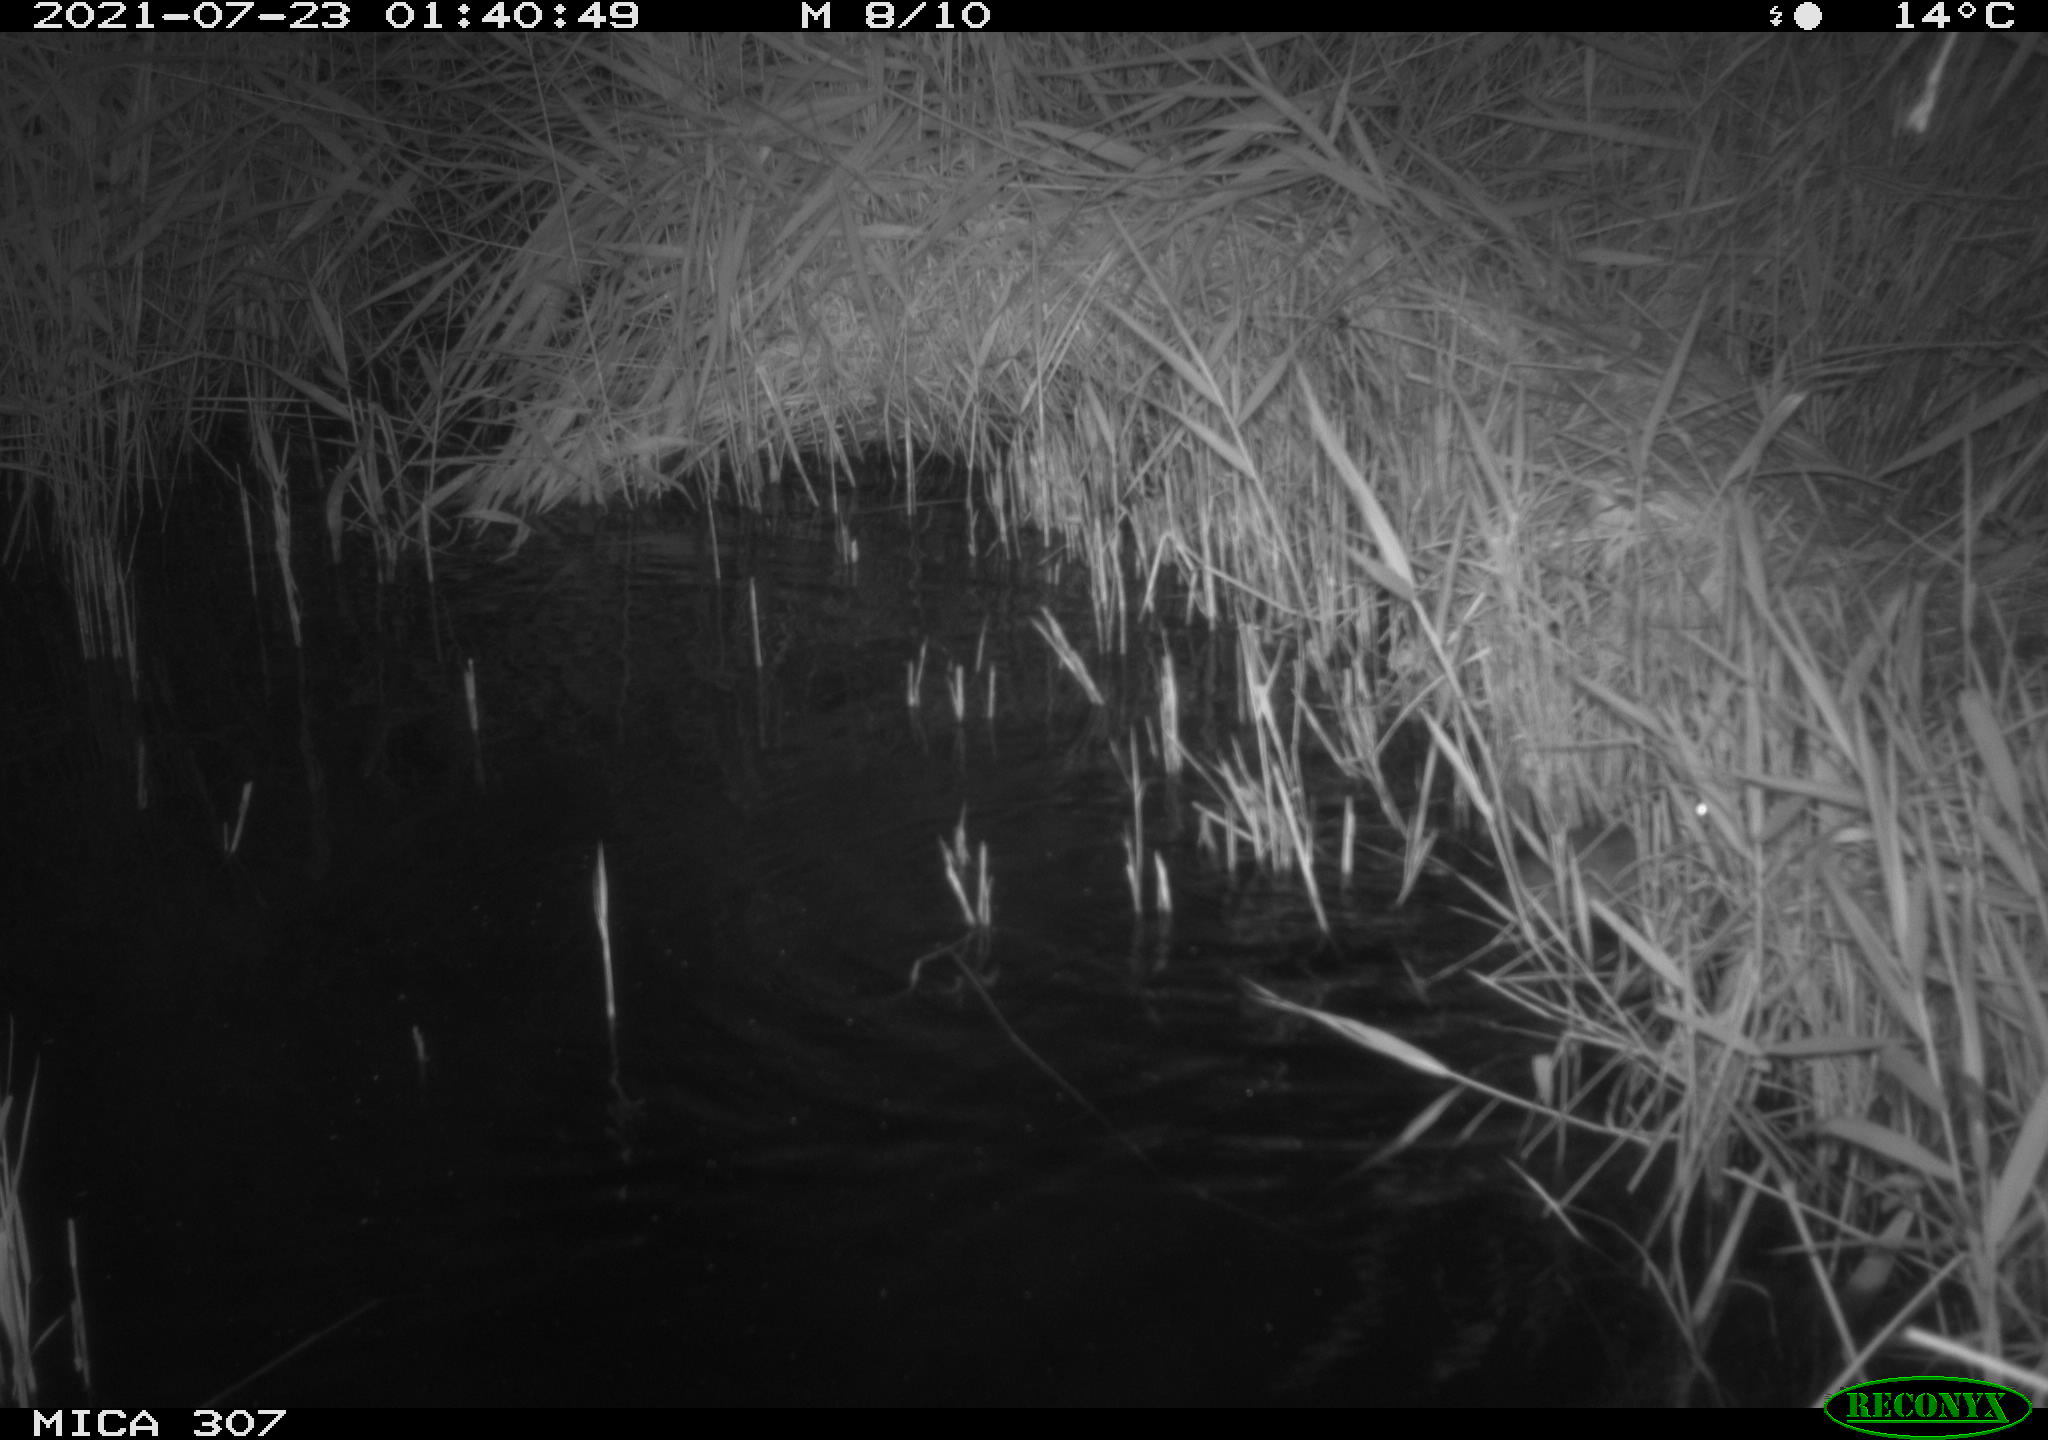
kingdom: Animalia
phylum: Chordata
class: Mammalia
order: Rodentia
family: Muridae
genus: Rattus
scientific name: Rattus norvegicus
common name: Brown rat
